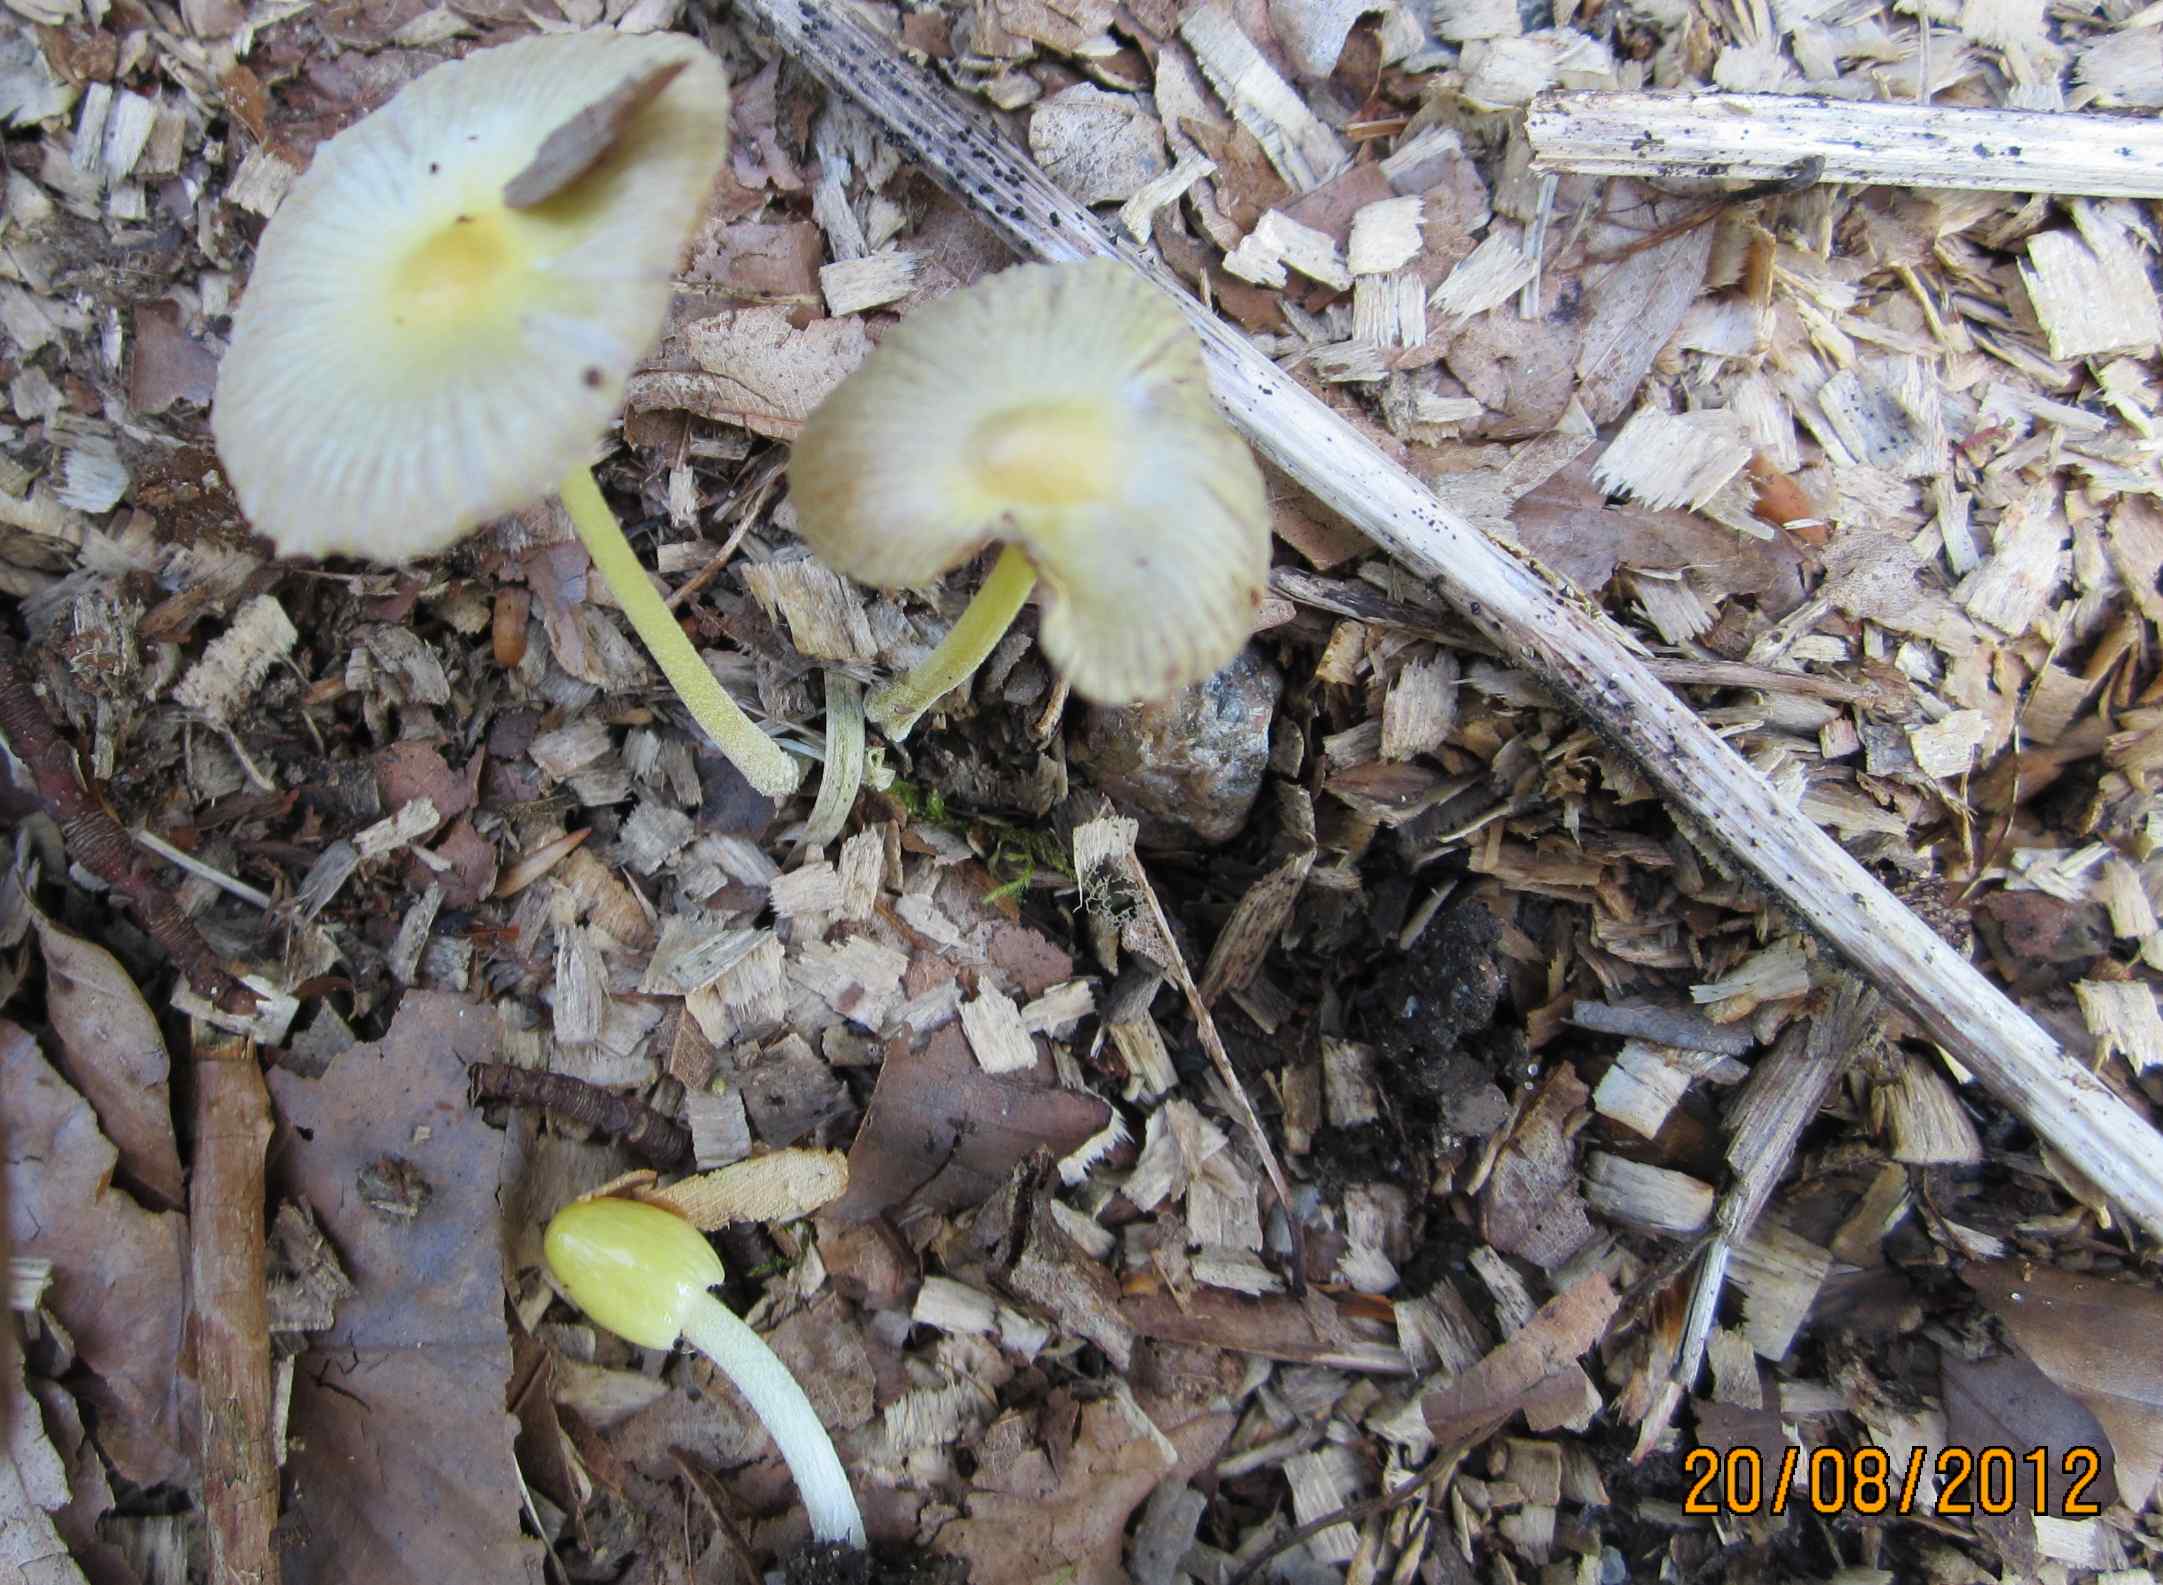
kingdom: Fungi
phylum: Basidiomycota
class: Agaricomycetes
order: Agaricales
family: Bolbitiaceae
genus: Bolbitius
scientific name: Bolbitius titubans
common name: almindelig gulhat
